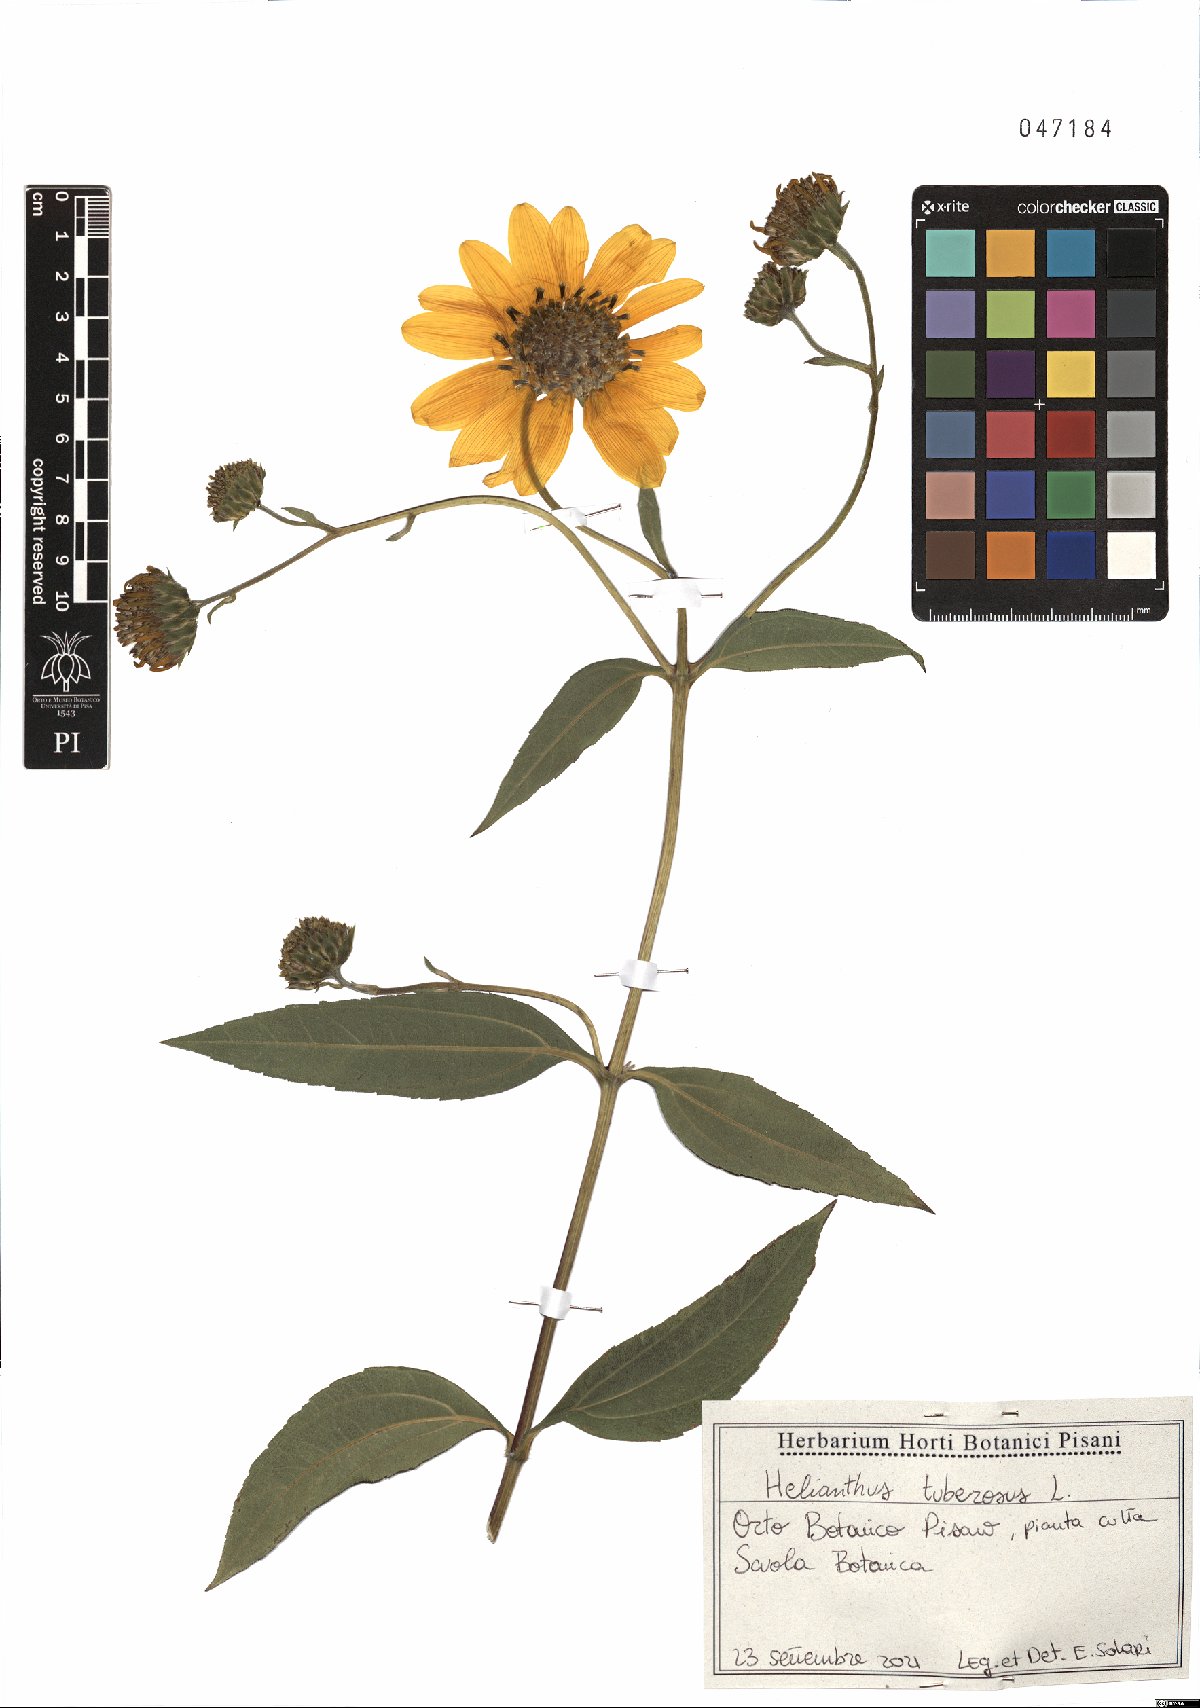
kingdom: Plantae
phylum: Tracheophyta
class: Magnoliopsida
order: Asterales
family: Asteraceae
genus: Helianthus
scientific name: Helianthus tuberosus
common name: Jerusalem artichoke
